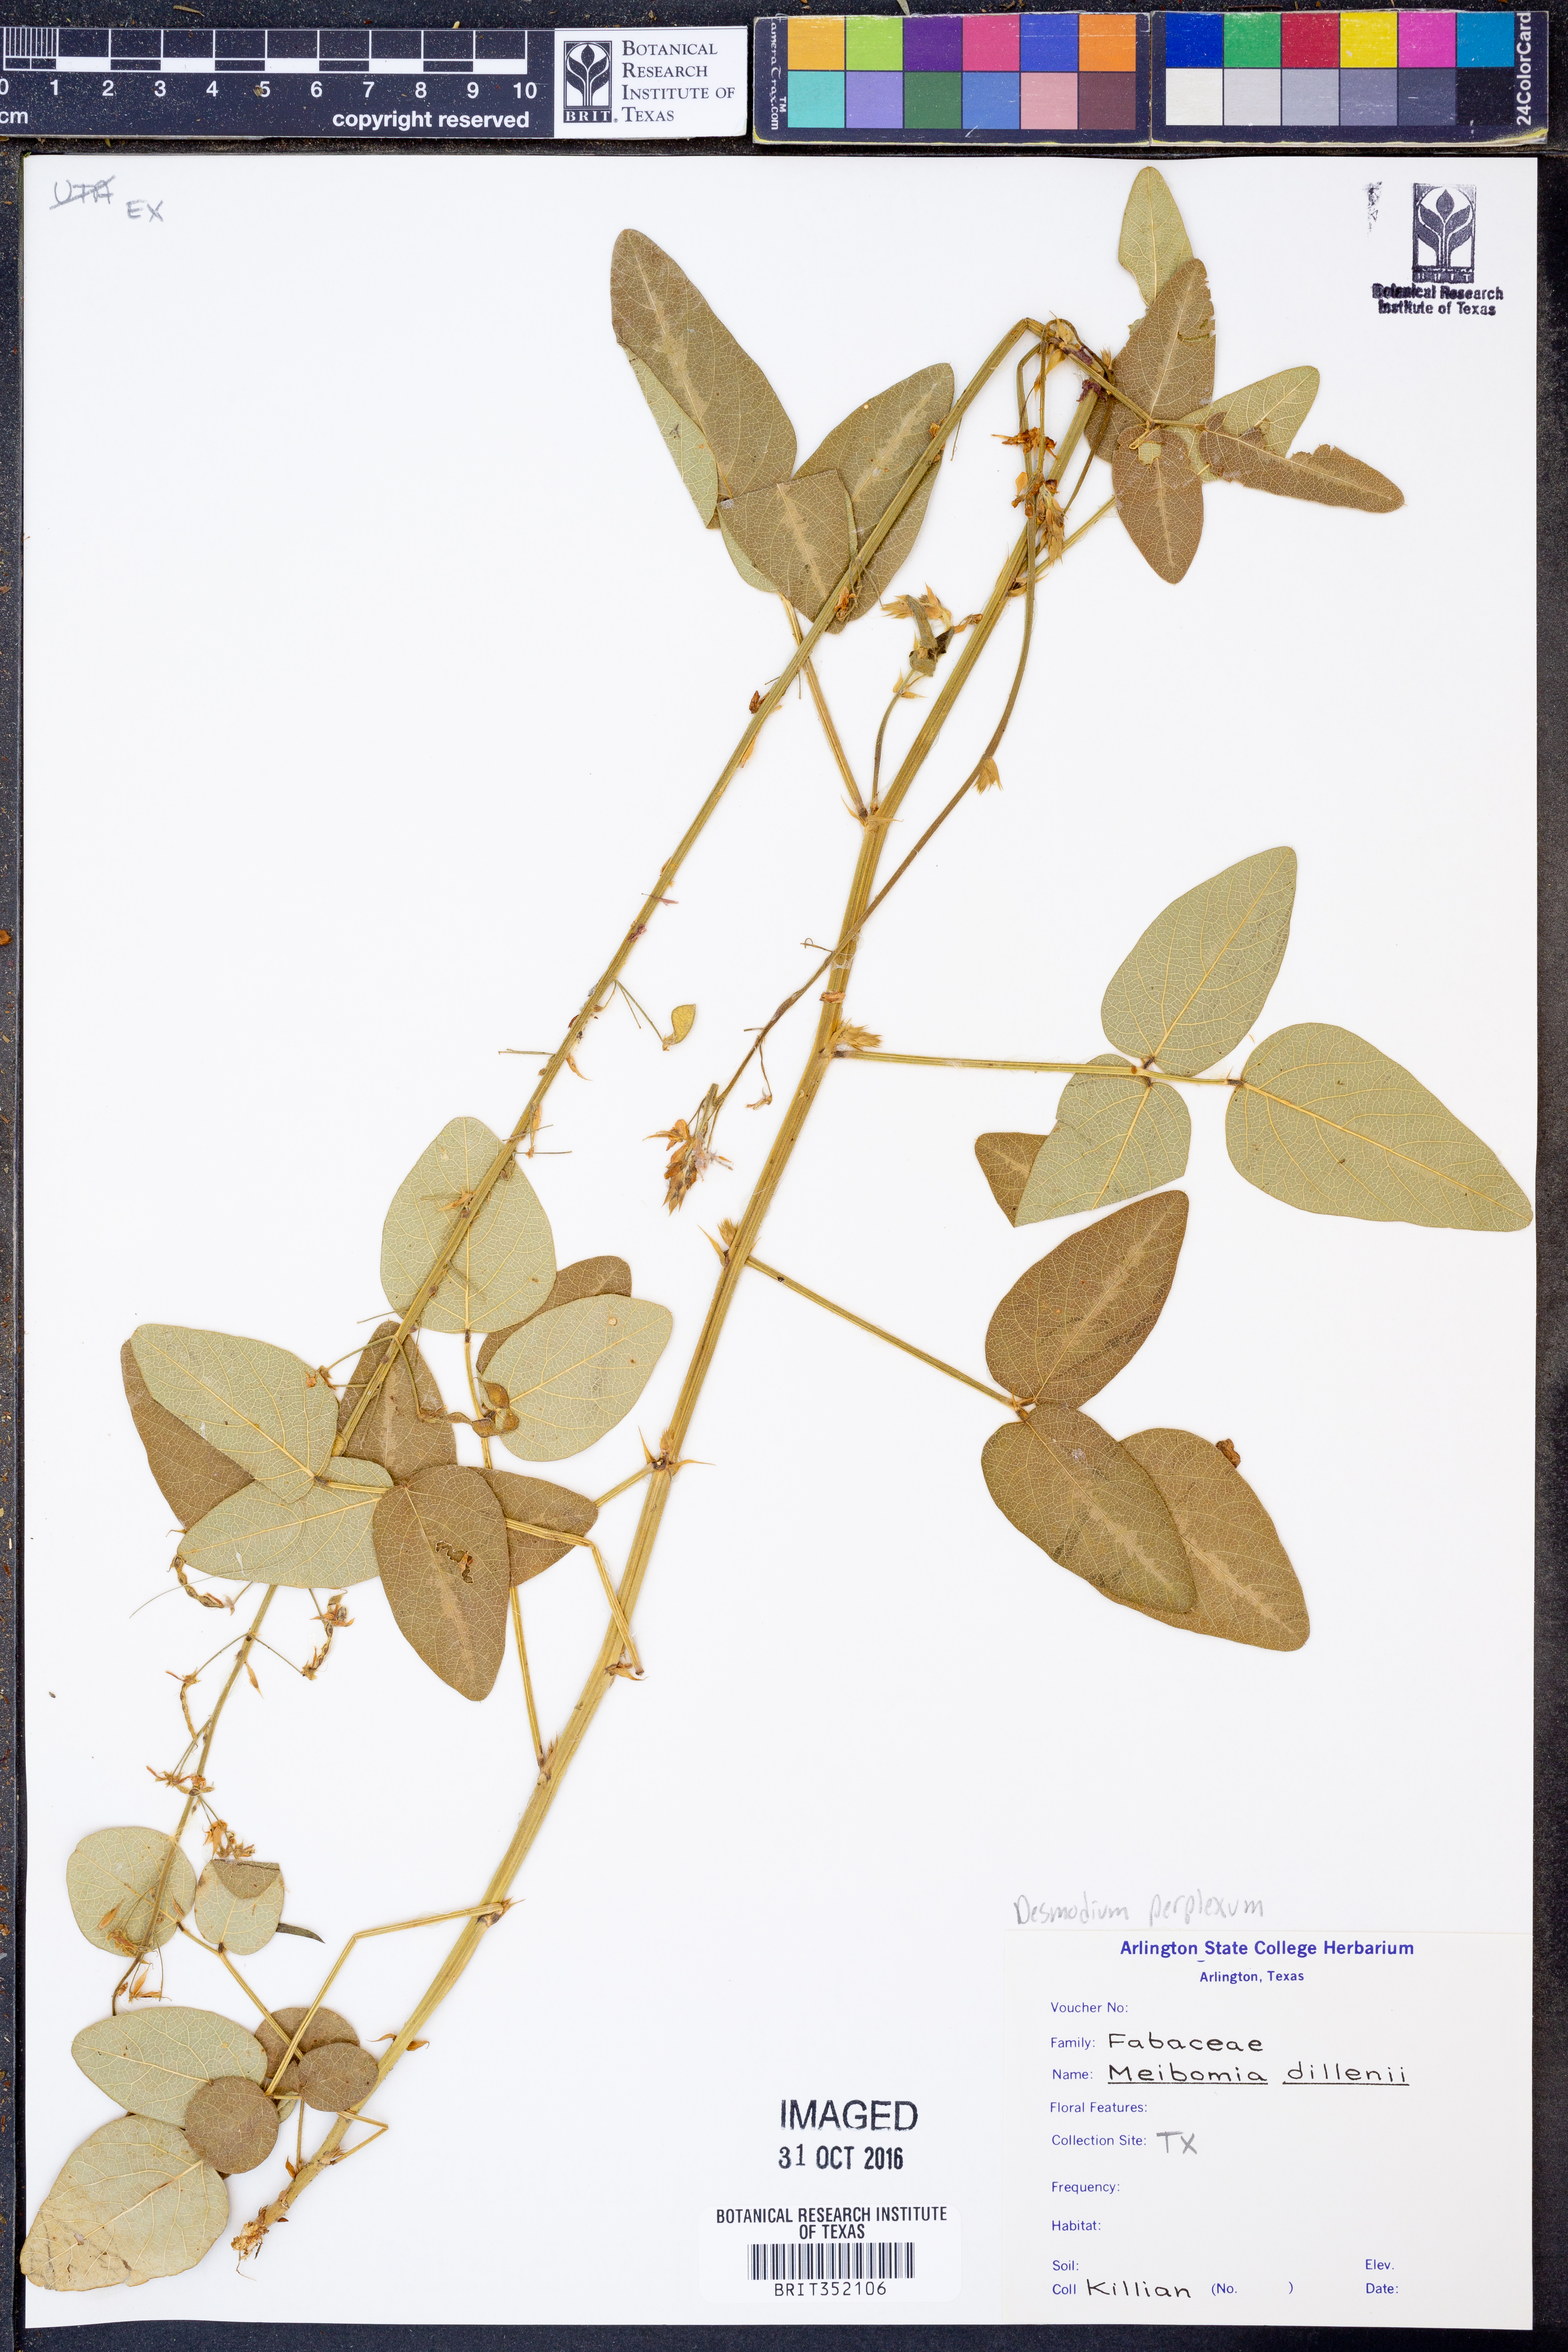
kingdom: Plantae
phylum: Tracheophyta
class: Magnoliopsida
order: Fabales
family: Fabaceae
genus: Desmodium
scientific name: Desmodium perplexum
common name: Perplexed tick trefoil
